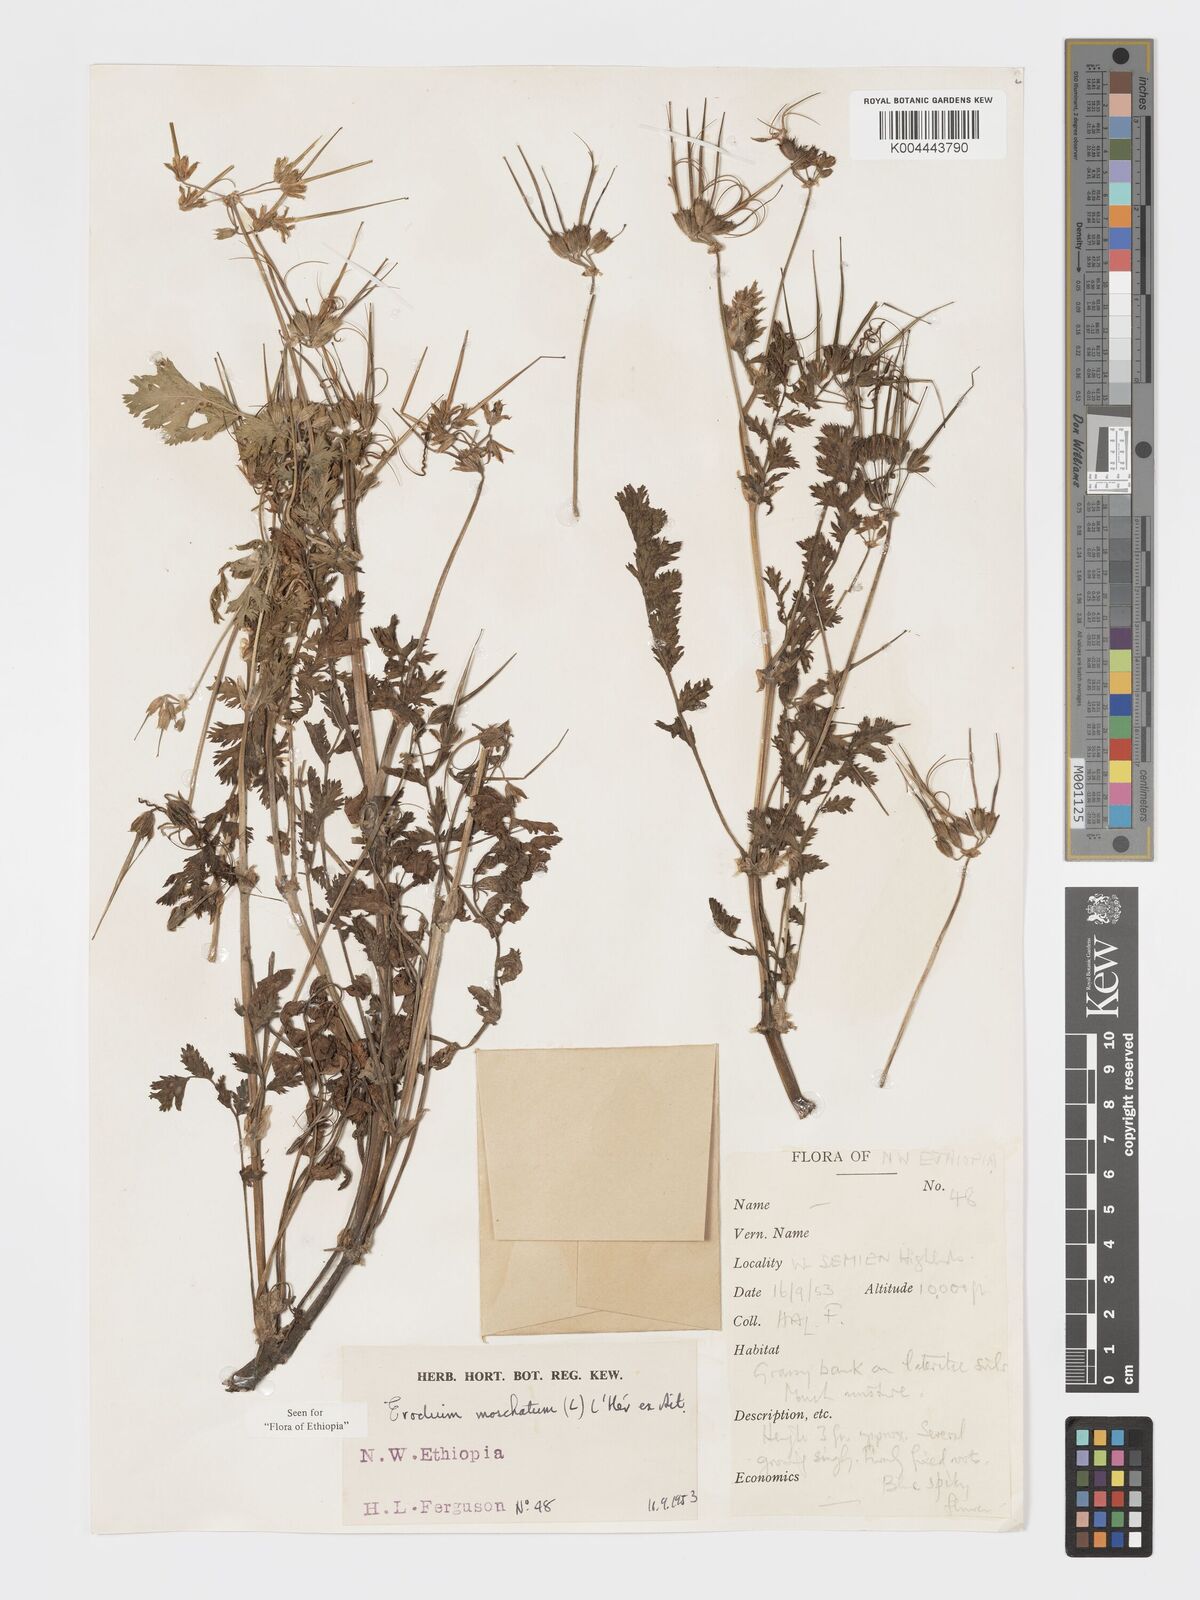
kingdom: Plantae
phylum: Tracheophyta
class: Magnoliopsida
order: Geraniales
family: Geraniaceae
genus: Erodium
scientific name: Erodium moschatum
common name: Musk stork's-bill
